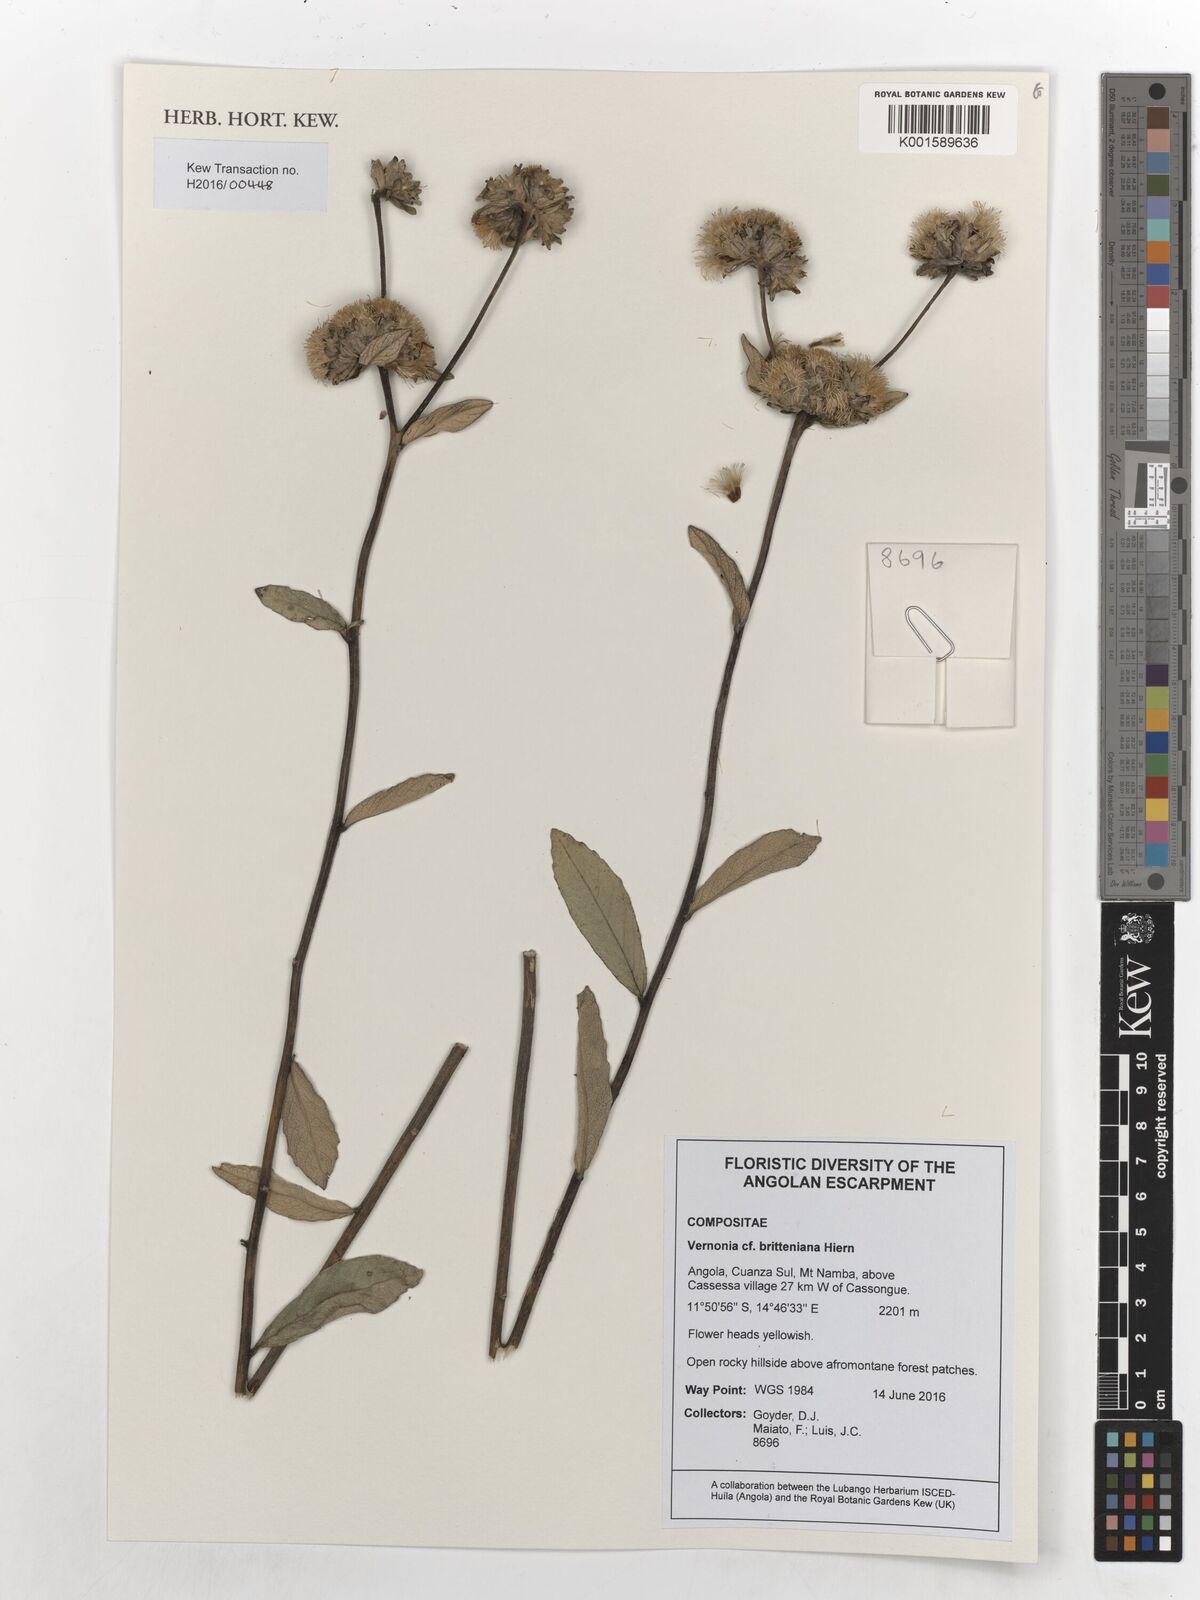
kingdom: Plantae
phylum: Tracheophyta
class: Magnoliopsida
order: Asterales
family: Asteraceae
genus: Vernonia
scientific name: Vernonia britteniana
